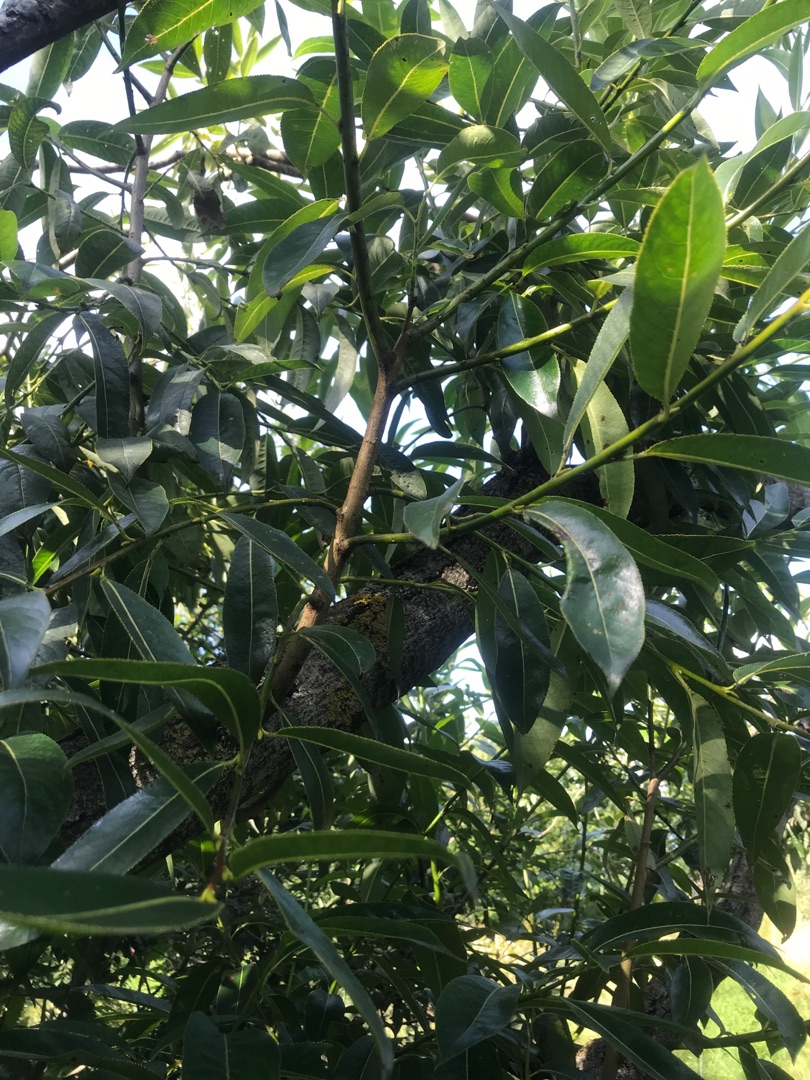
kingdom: Plantae
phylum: Tracheophyta
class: Magnoliopsida
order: Malpighiales
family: Salicaceae
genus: Salix
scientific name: Salix meyeriana
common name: Glans-pil
